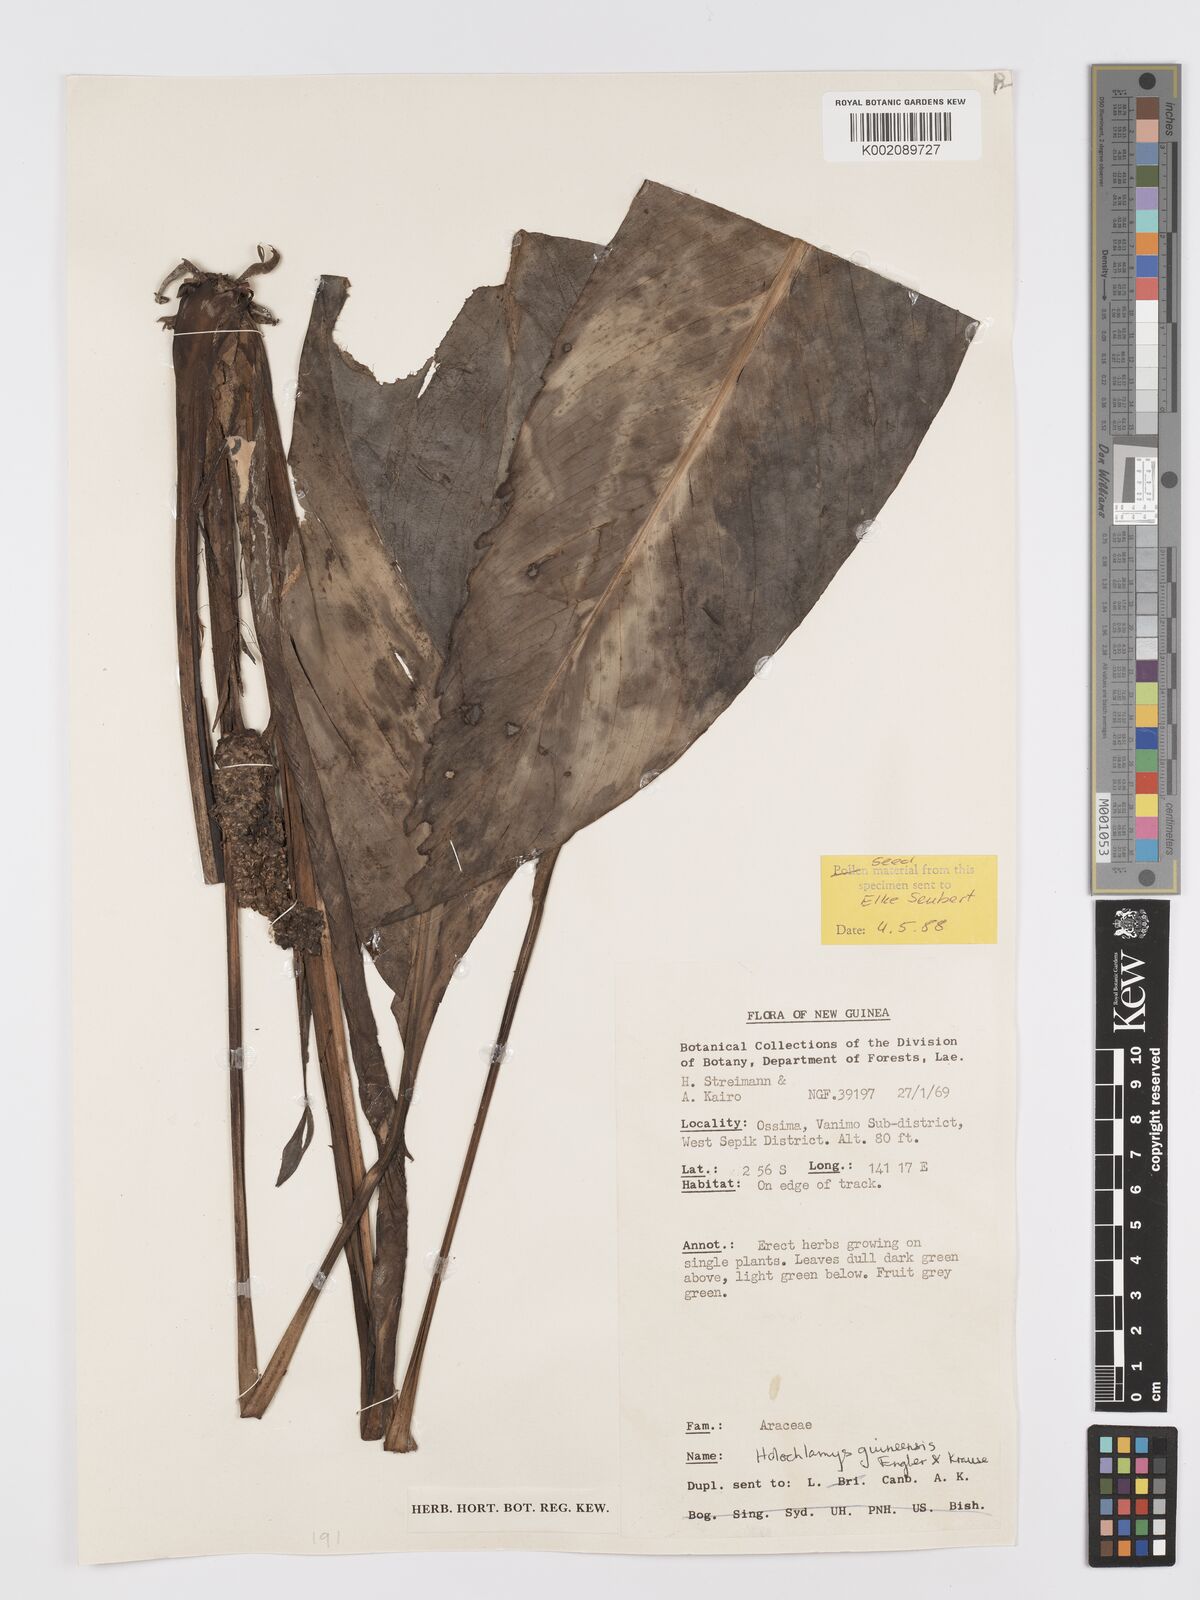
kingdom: Plantae
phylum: Tracheophyta
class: Liliopsida
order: Alismatales
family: Araceae
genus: Holochlamys
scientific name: Holochlamys beccarii
